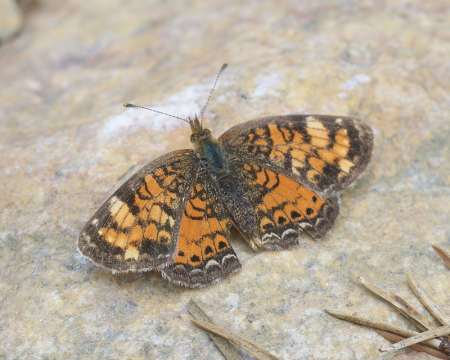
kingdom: Animalia
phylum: Arthropoda
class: Insecta
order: Lepidoptera
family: Nymphalidae
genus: Phyciodes
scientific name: Phyciodes tharos
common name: Northern Crescent
